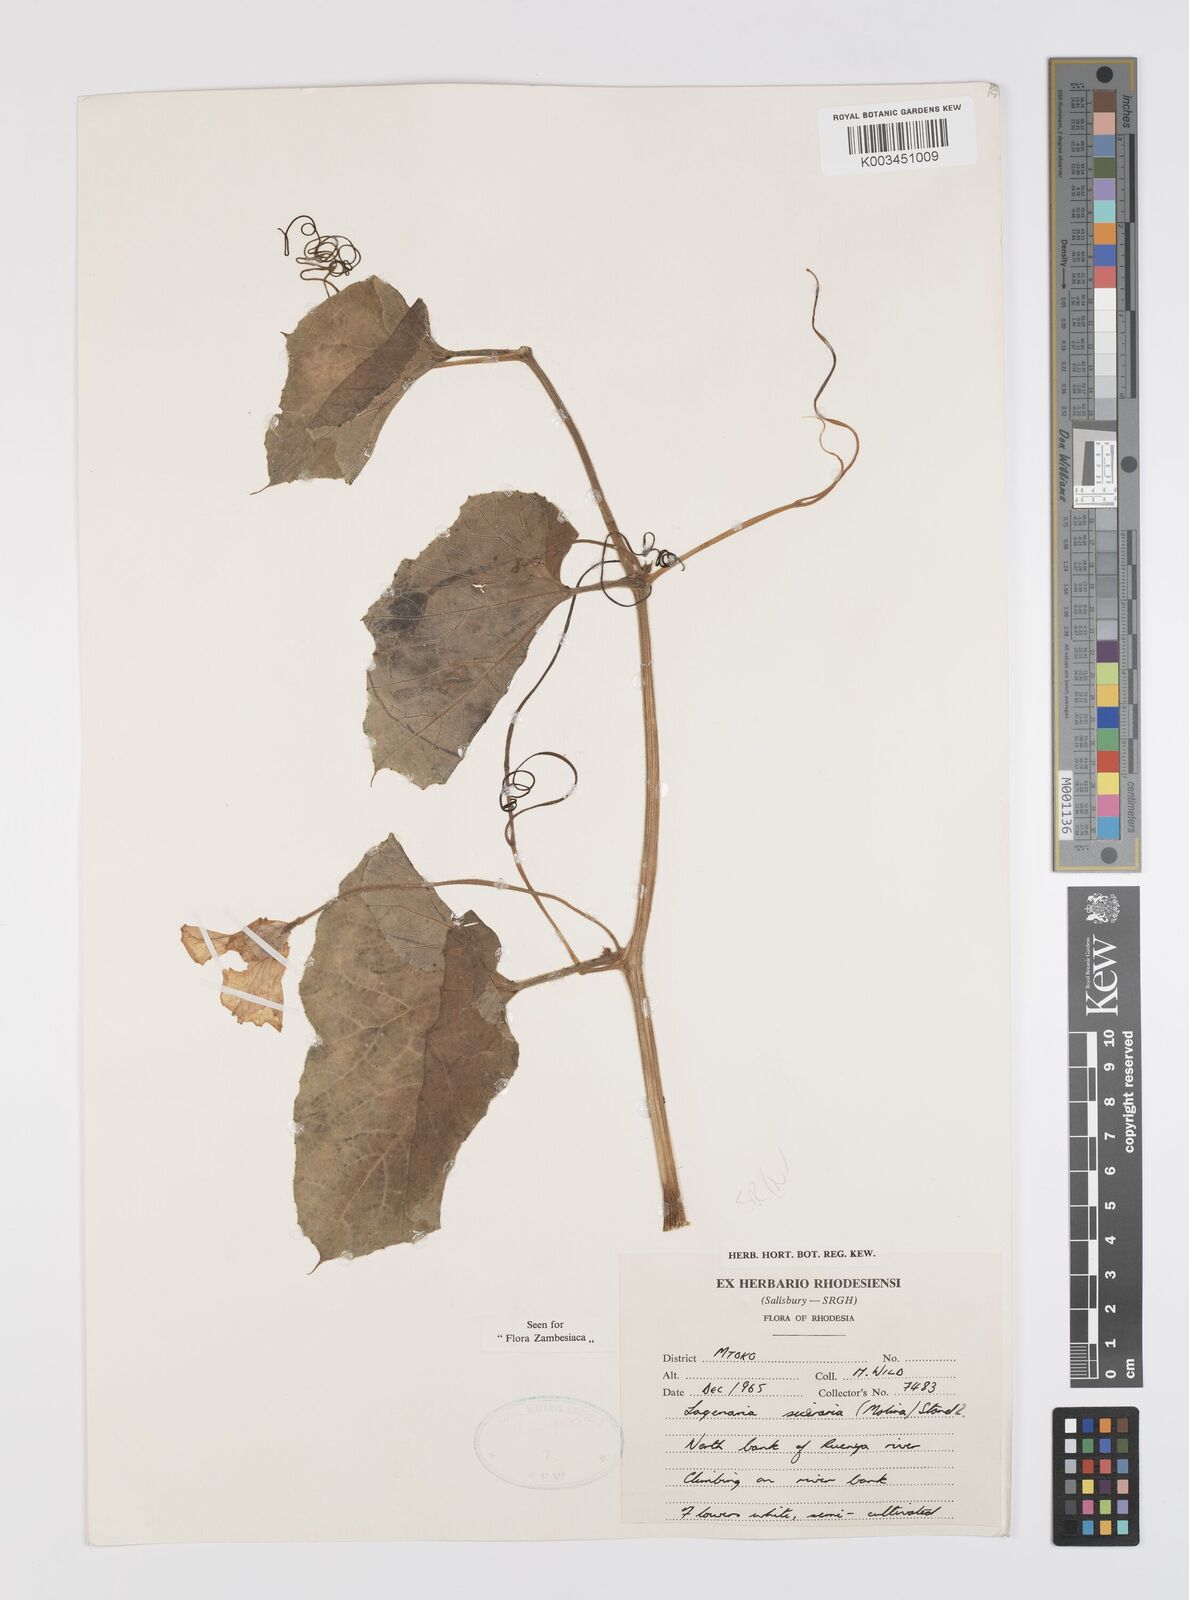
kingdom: Plantae
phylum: Tracheophyta
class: Magnoliopsida
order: Cucurbitales
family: Cucurbitaceae
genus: Lagenaria
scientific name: Lagenaria siceraria
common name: Bottle gourd
